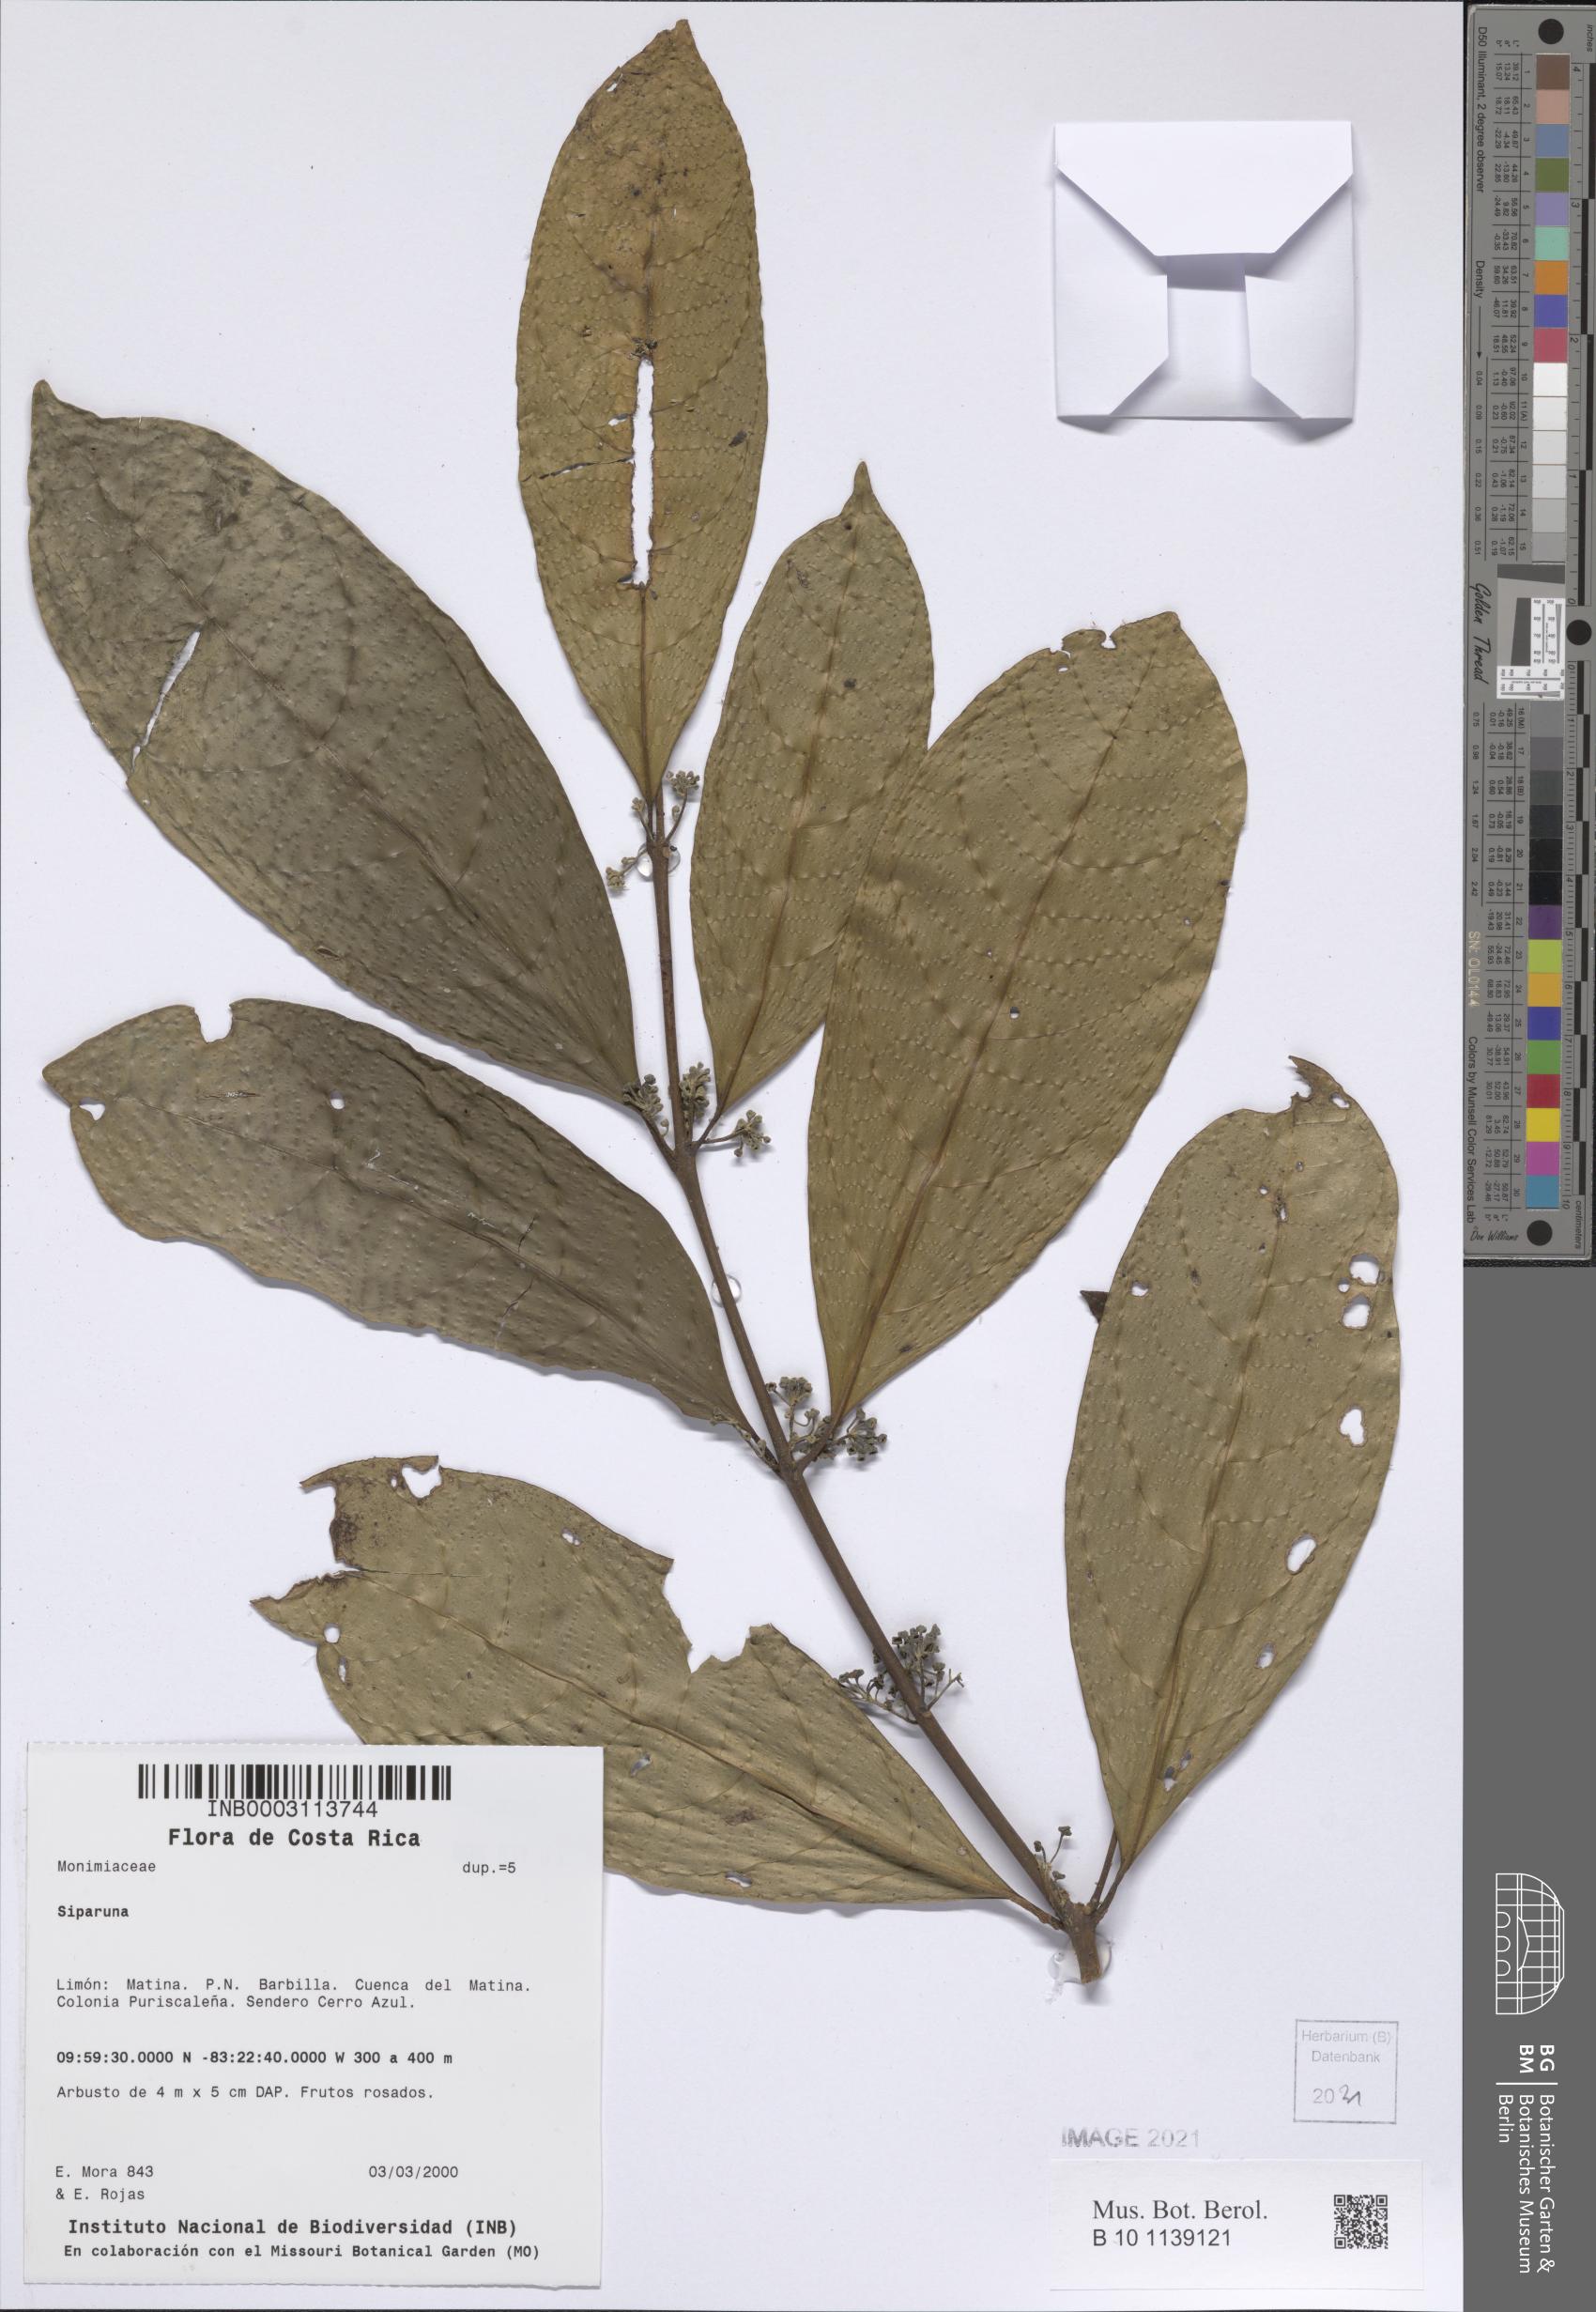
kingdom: Plantae
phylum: Tracheophyta
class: Magnoliopsida
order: Laurales
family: Siparunaceae
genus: Siparuna
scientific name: Siparuna cristata
